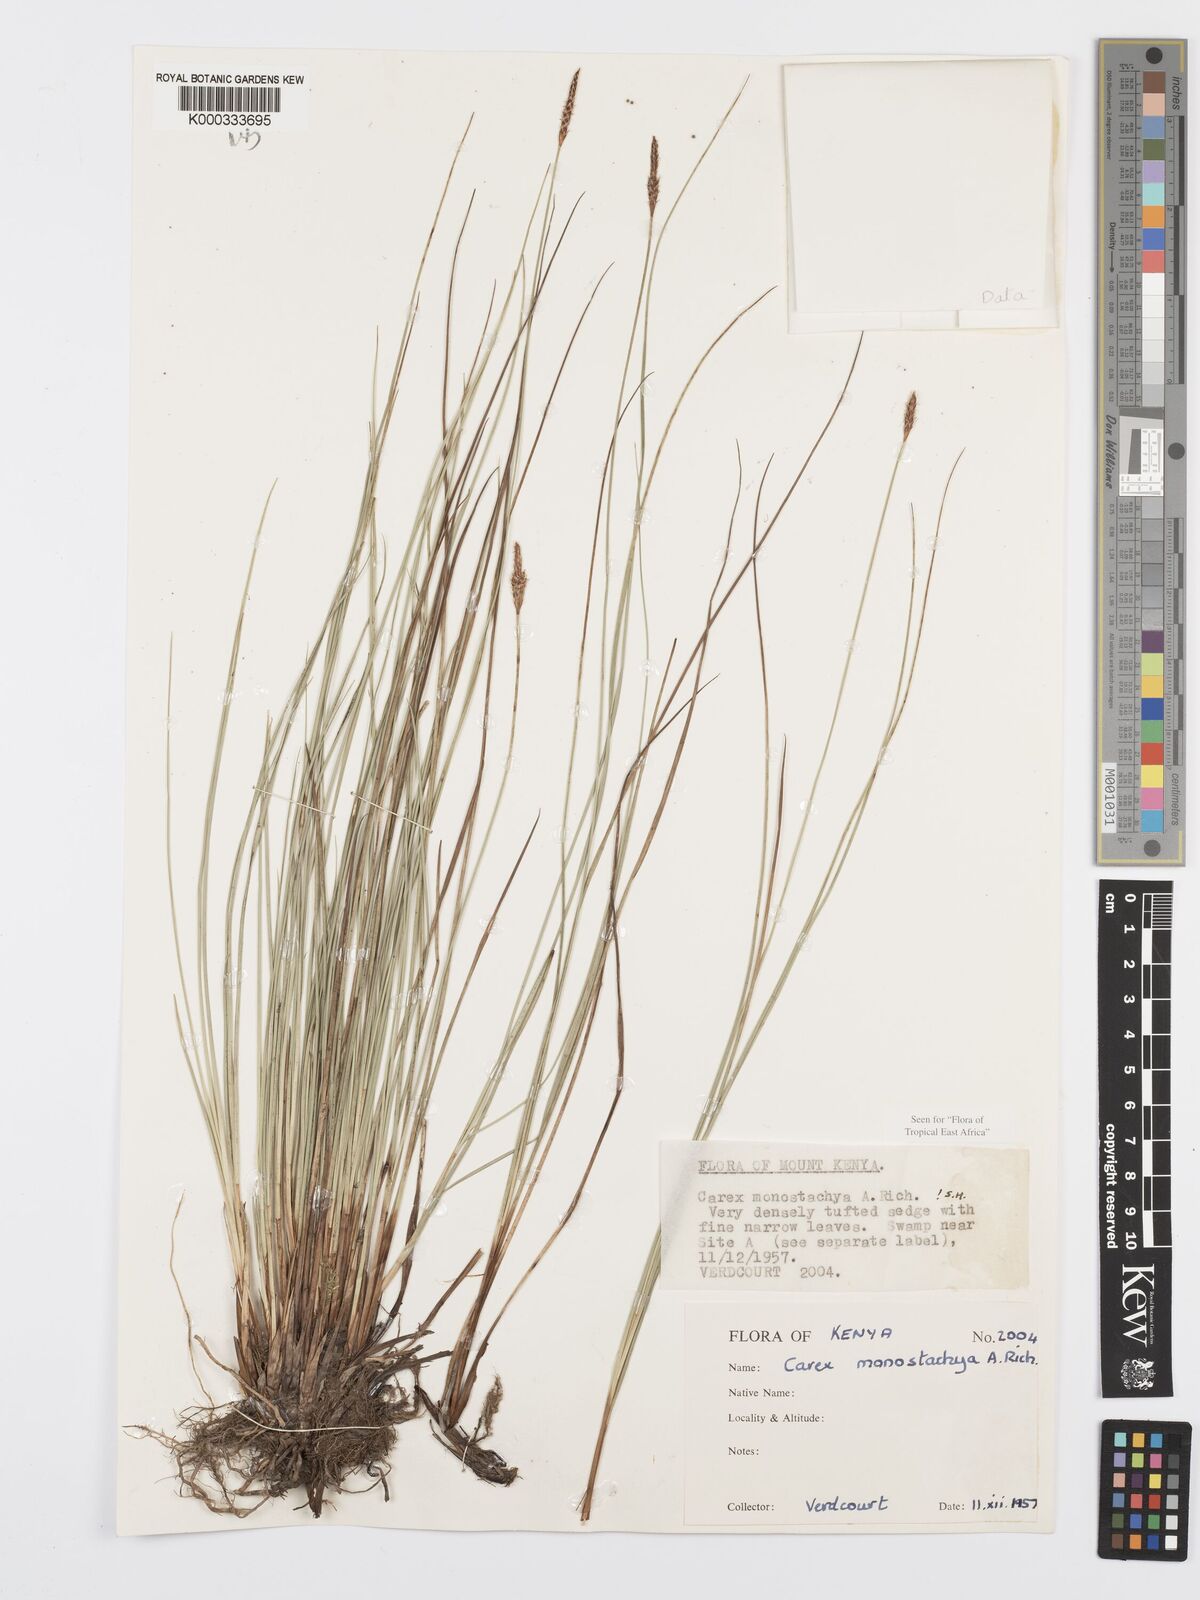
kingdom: Plantae
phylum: Tracheophyta
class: Liliopsida
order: Poales
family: Cyperaceae
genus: Carex
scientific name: Carex monostachya
